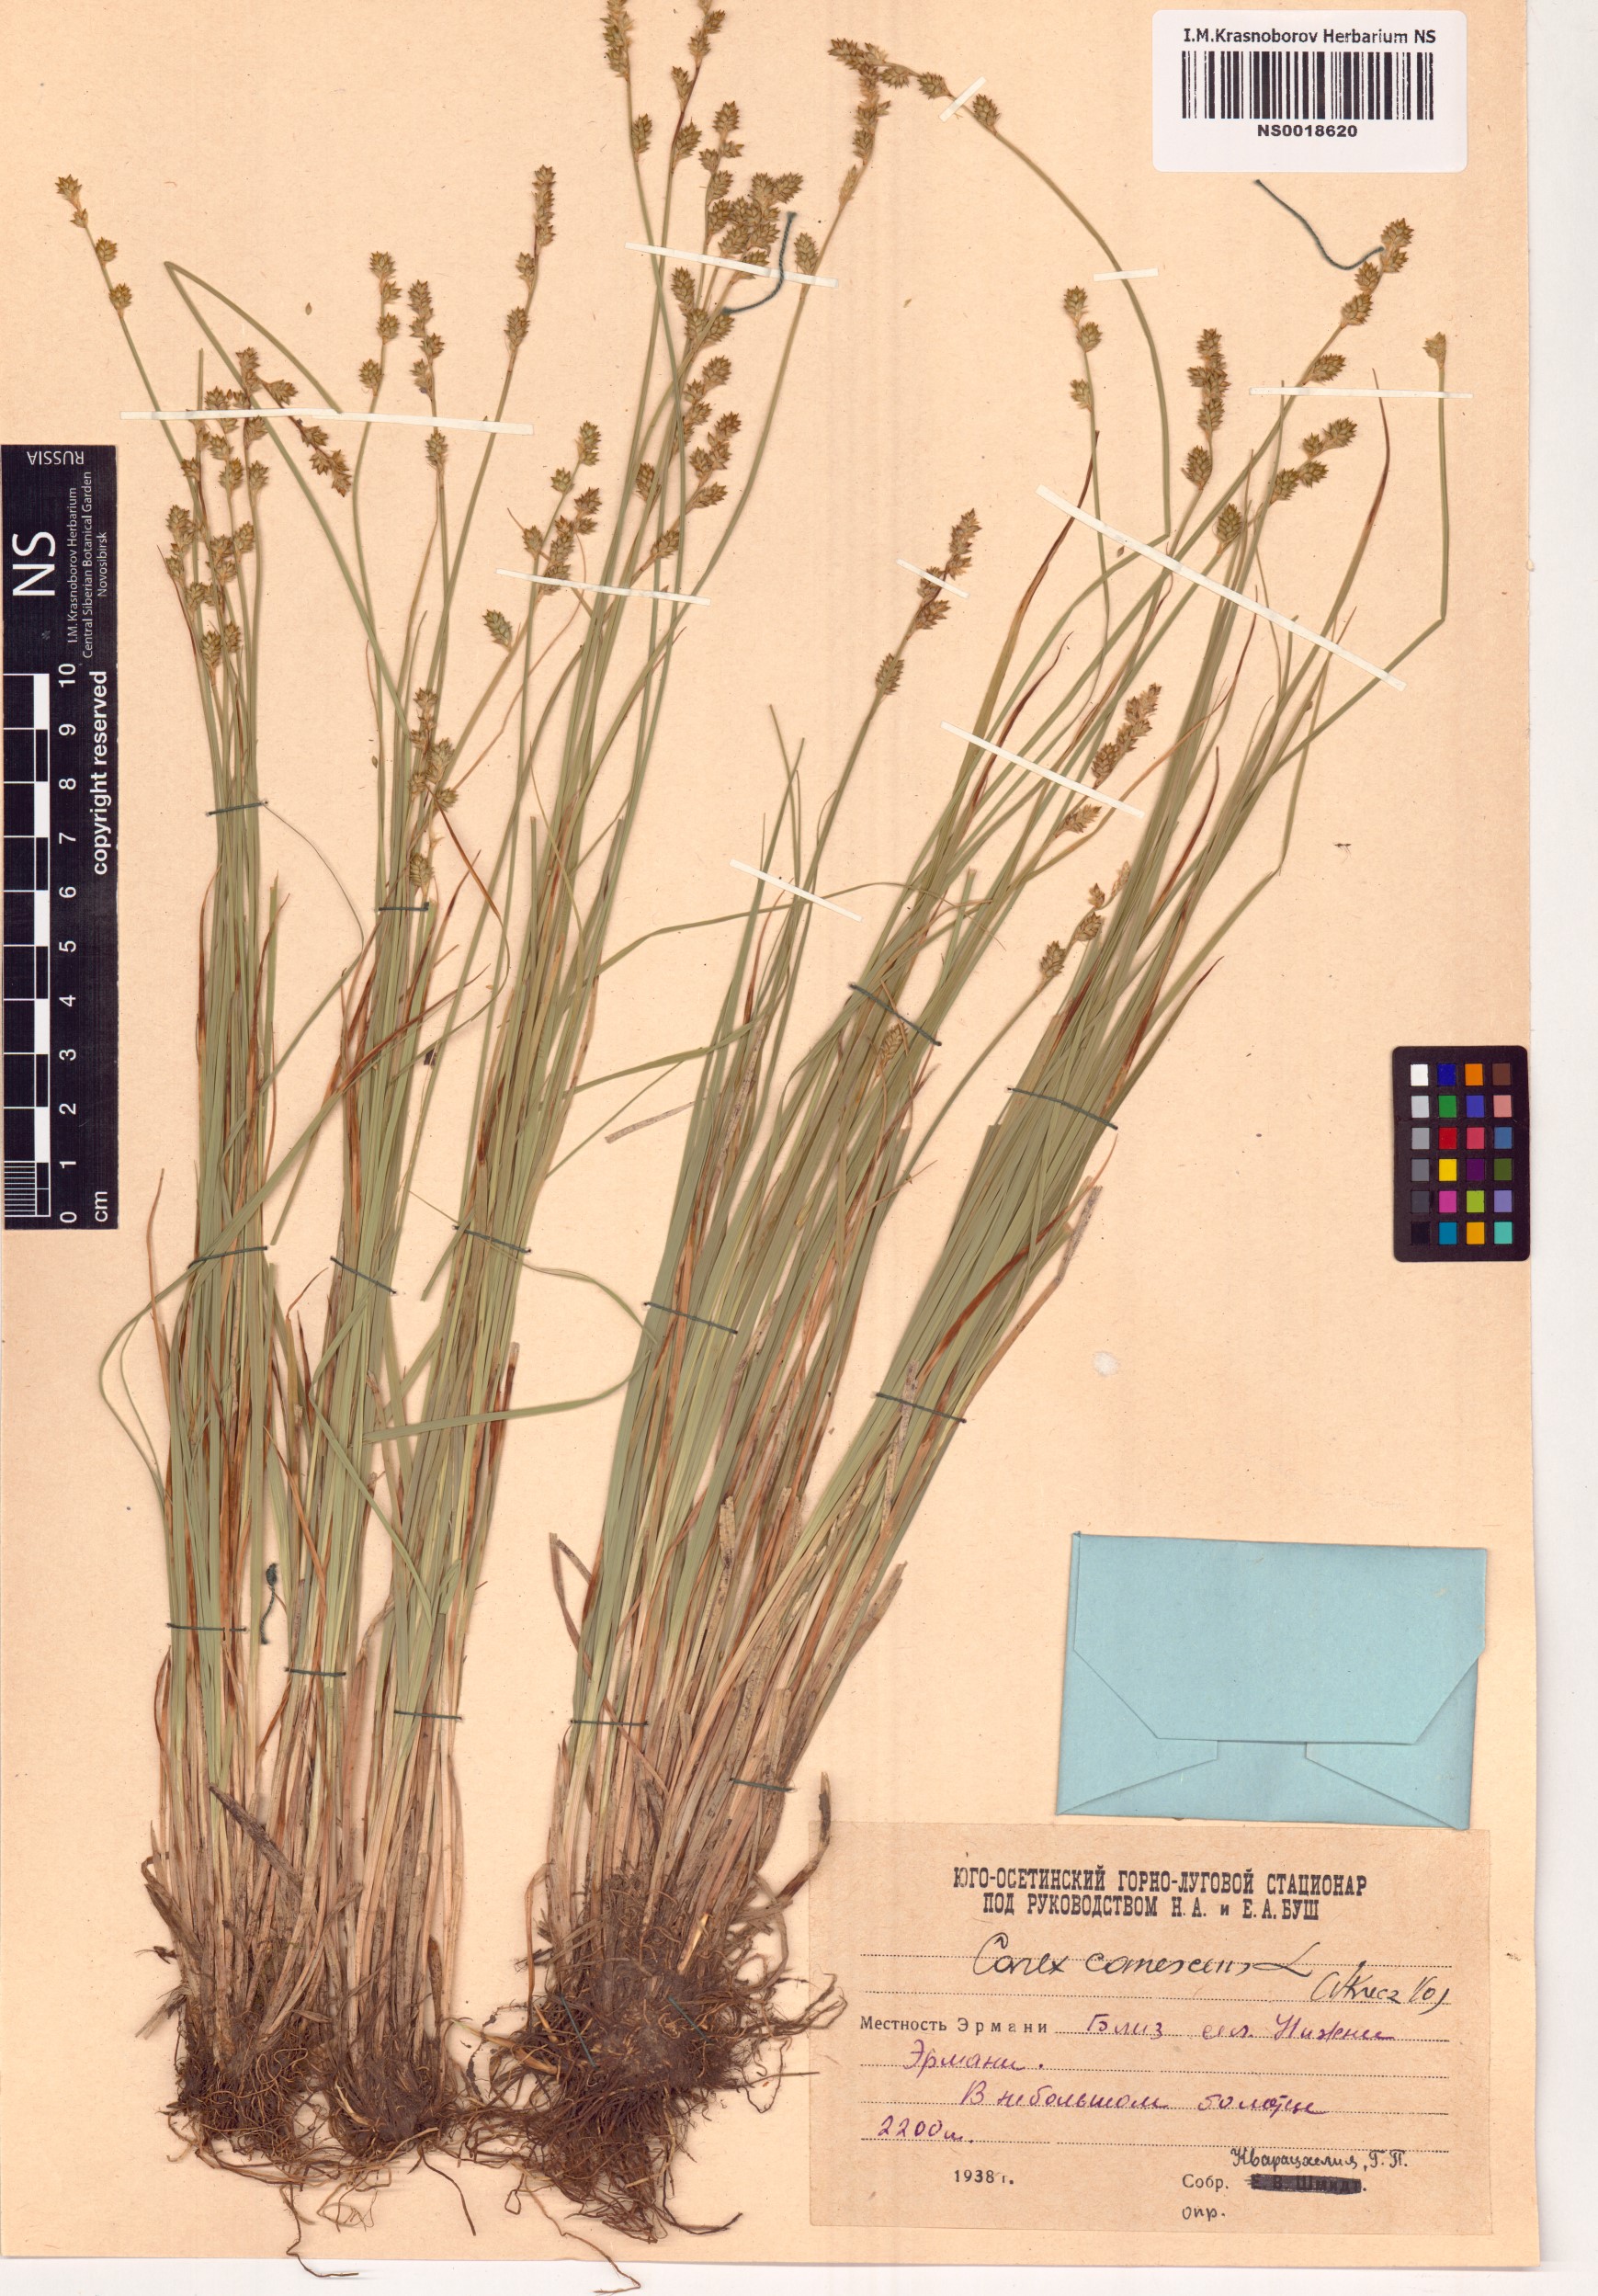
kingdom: Plantae
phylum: Tracheophyta
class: Liliopsida
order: Poales
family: Cyperaceae
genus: Carex
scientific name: Carex canescens
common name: White sedge
